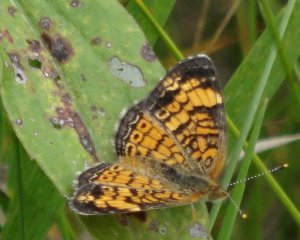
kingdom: Animalia
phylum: Arthropoda
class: Insecta
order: Lepidoptera
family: Nymphalidae
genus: Phyciodes
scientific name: Phyciodes tharos
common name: Northern Crescent
